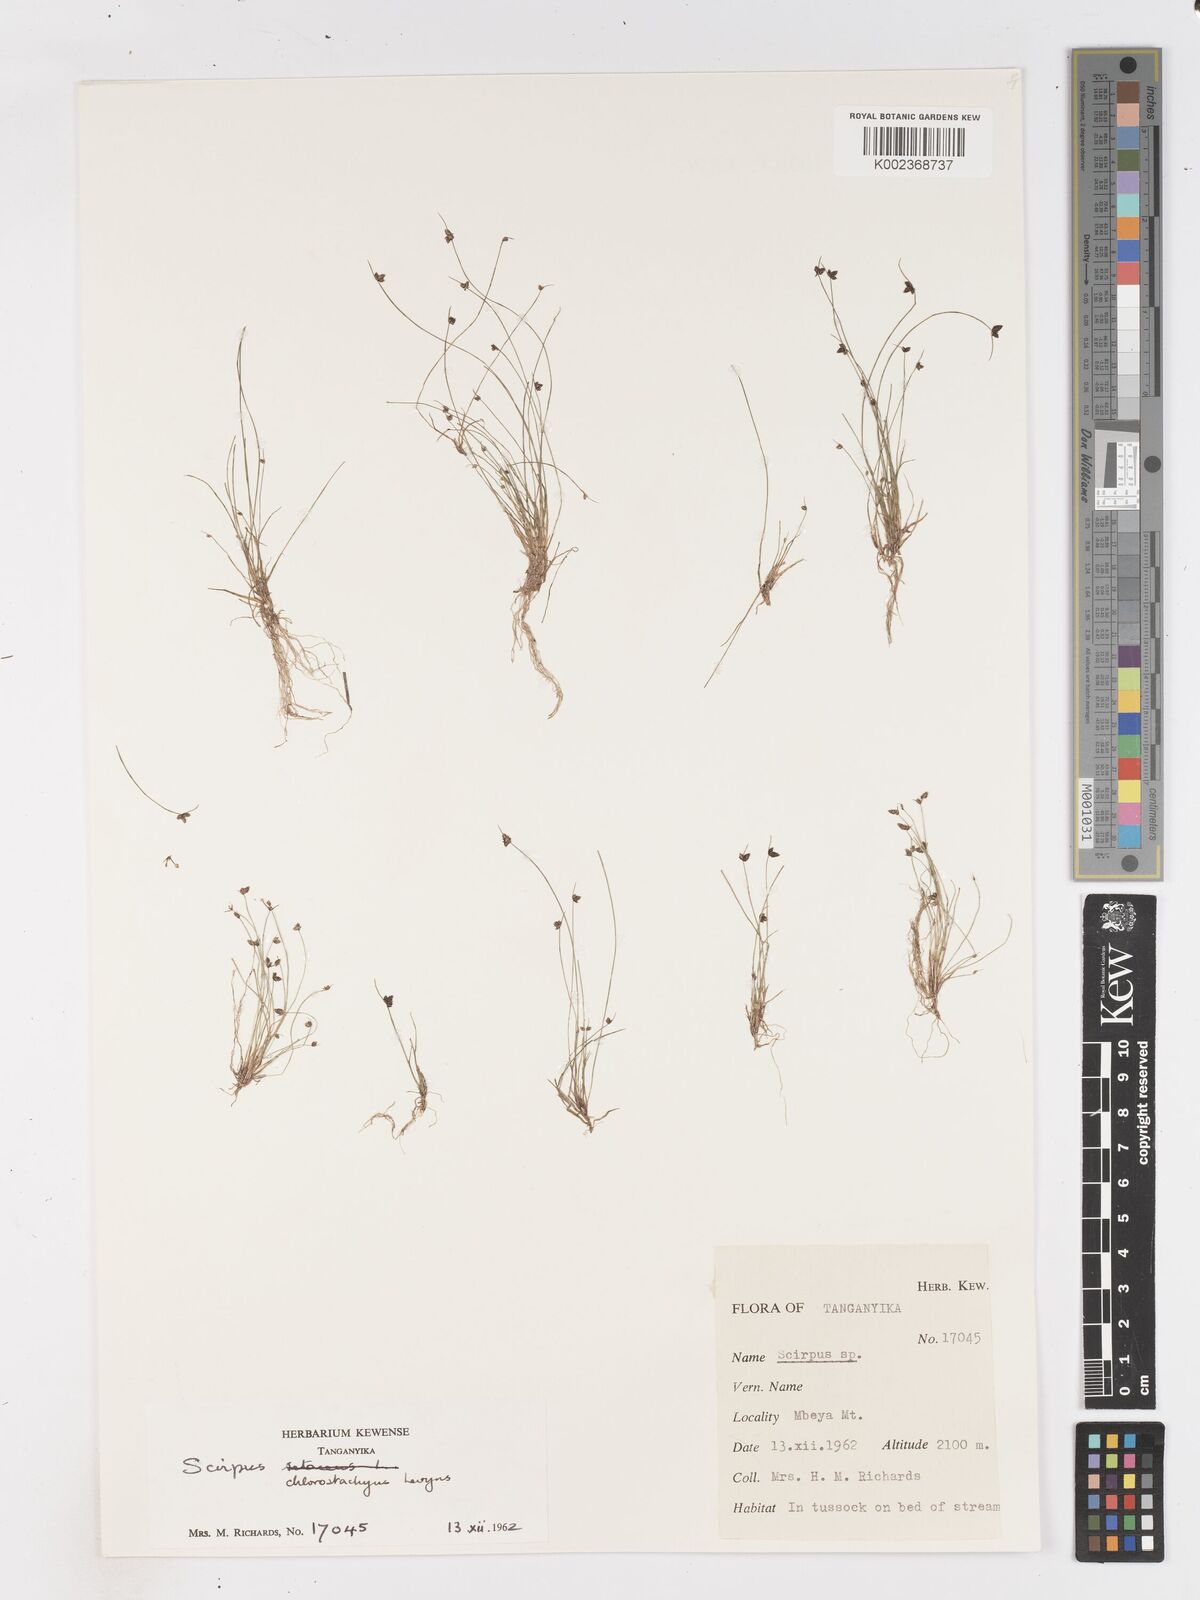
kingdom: Plantae
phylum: Tracheophyta
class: Liliopsida
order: Poales
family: Cyperaceae
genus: Isolepis
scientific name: Isolepis
